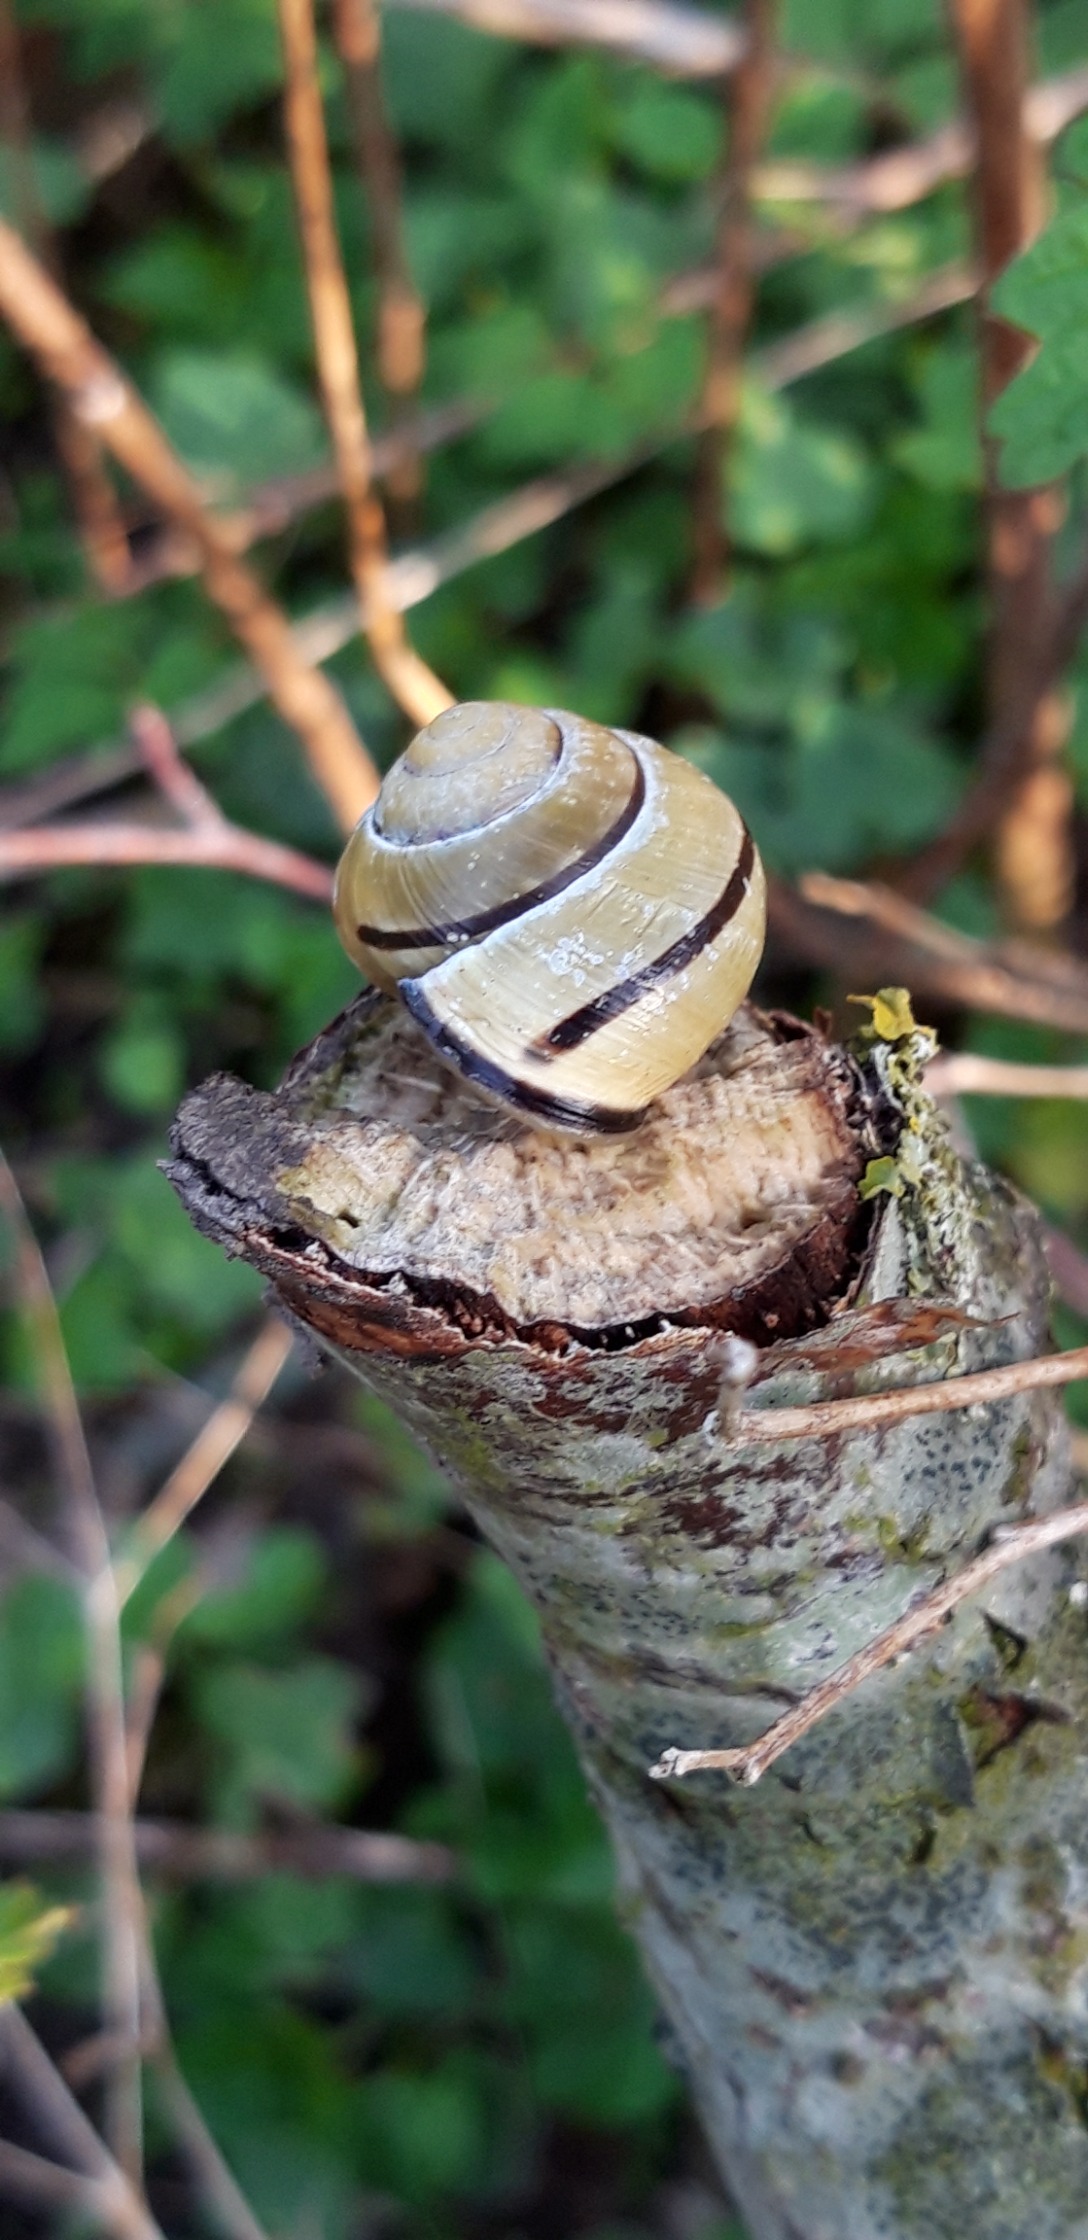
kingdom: Animalia
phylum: Mollusca
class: Gastropoda
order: Stylommatophora
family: Helicidae
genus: Cepaea
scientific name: Cepaea nemoralis
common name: Lundsnegl
